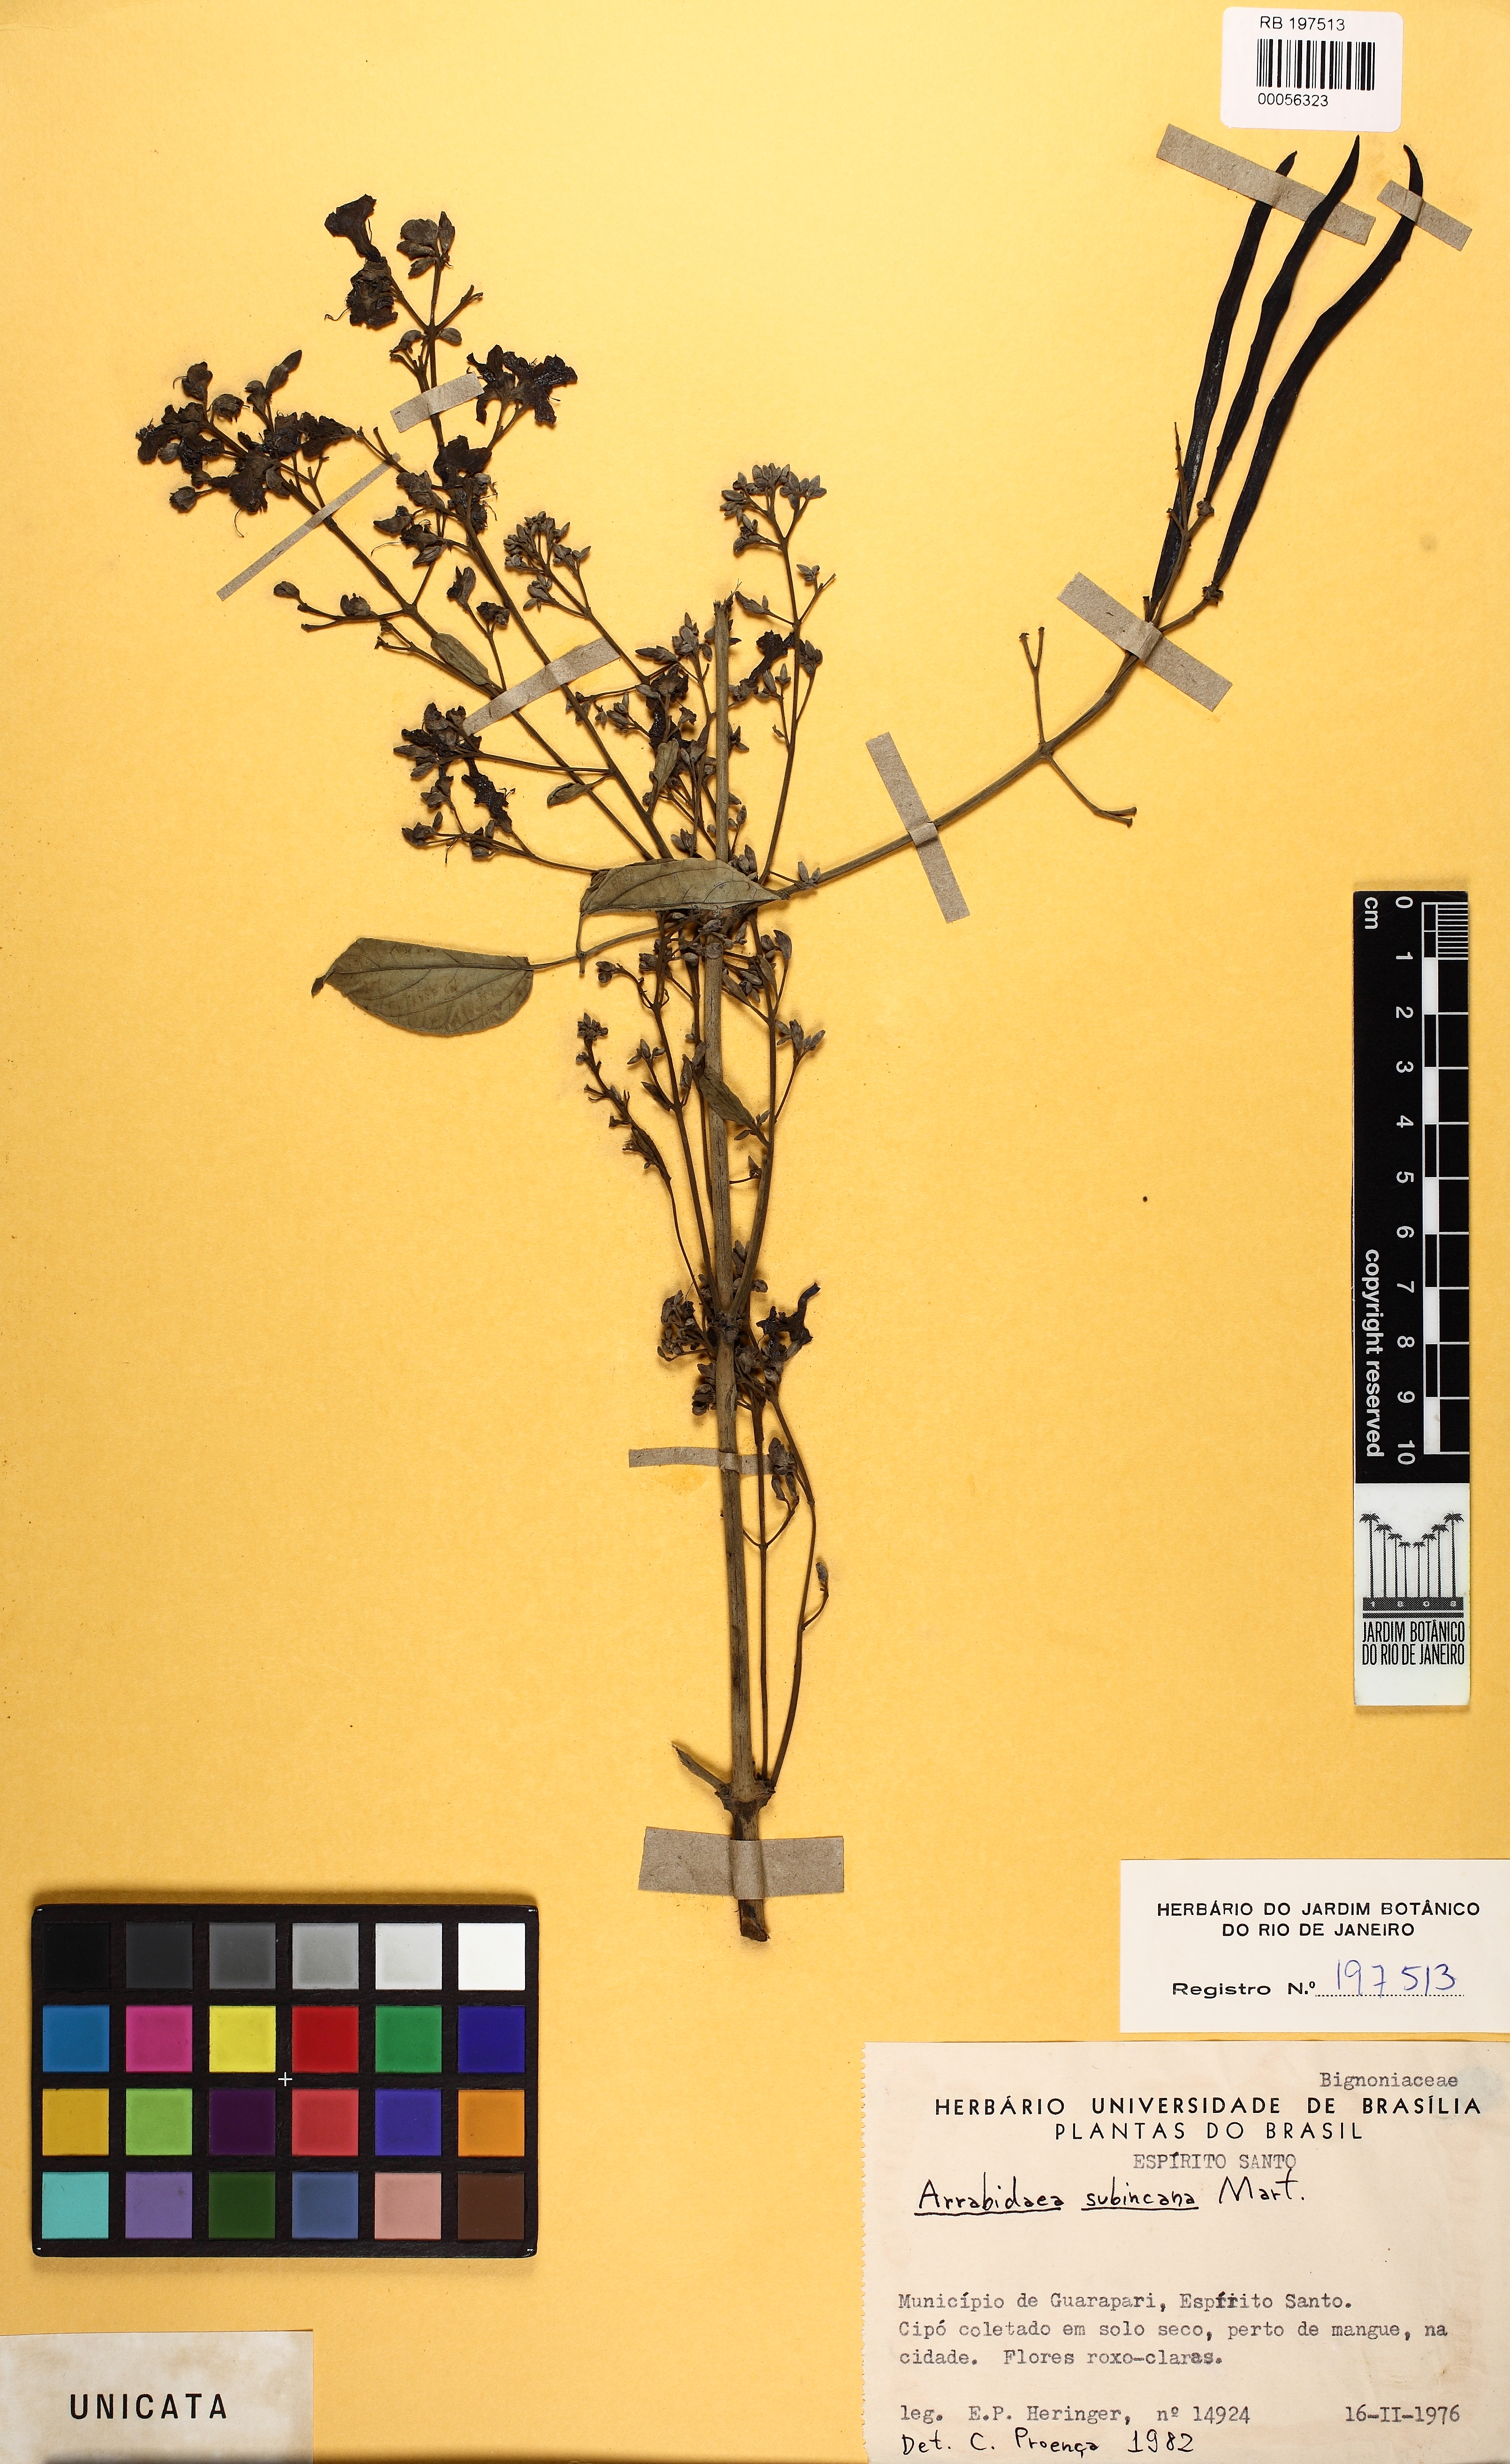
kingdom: Plantae
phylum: Tracheophyta
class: Magnoliopsida
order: Lamiales
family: Bignoniaceae
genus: Fridericia
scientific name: Fridericia subincana
